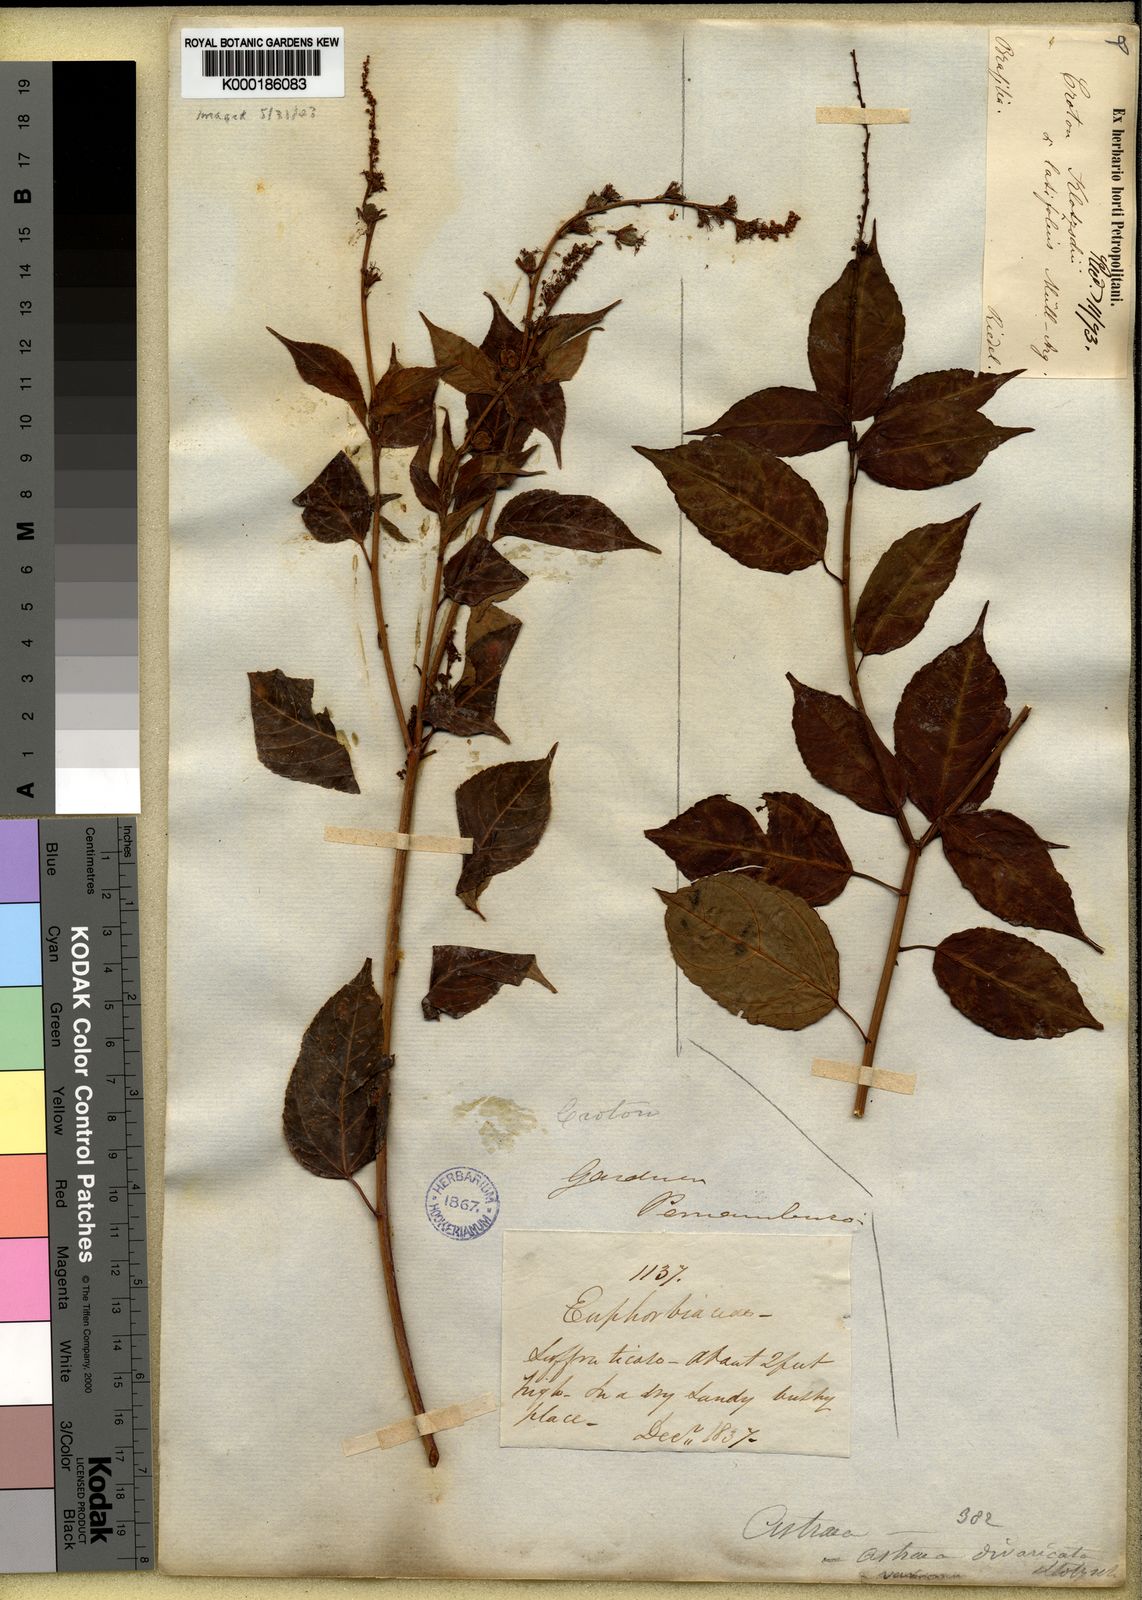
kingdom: Plantae
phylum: Tracheophyta
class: Magnoliopsida
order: Malpighiales
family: Euphorbiaceae
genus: Astraea
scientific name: Astraea macroura
